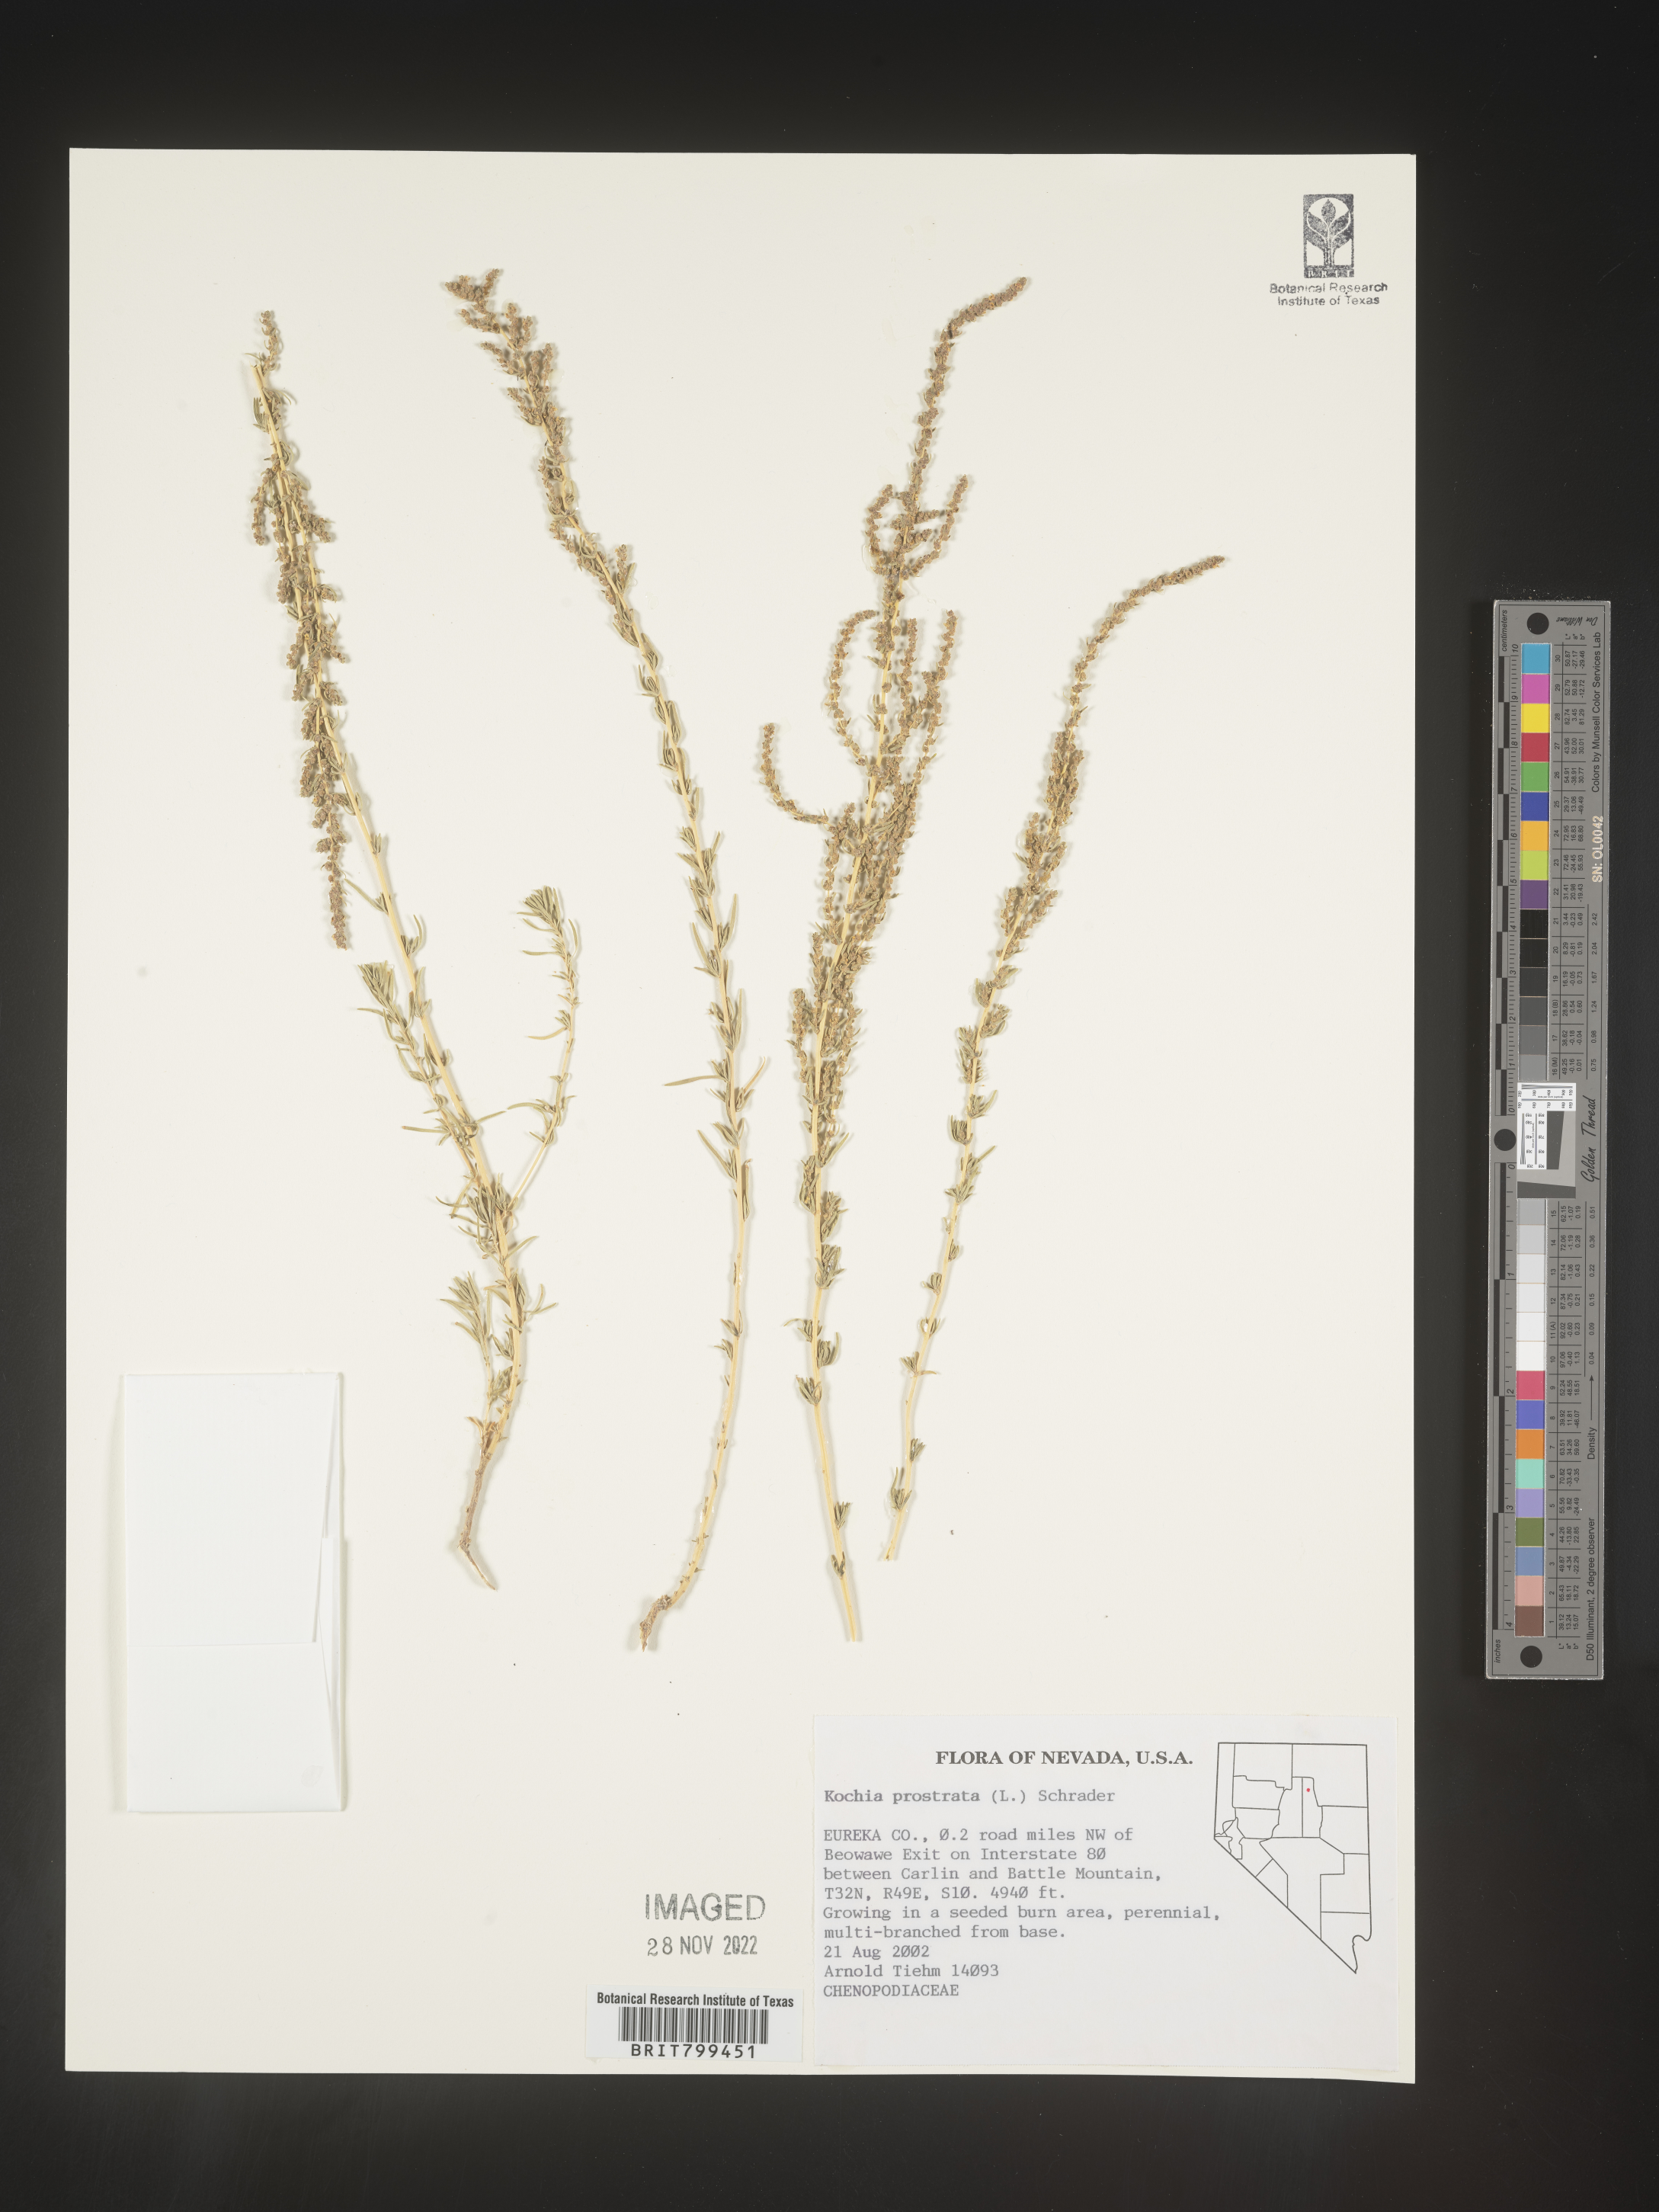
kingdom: Plantae
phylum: Tracheophyta
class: Magnoliopsida
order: Caryophyllales
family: Amaranthaceae
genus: Bassia
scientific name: Bassia
